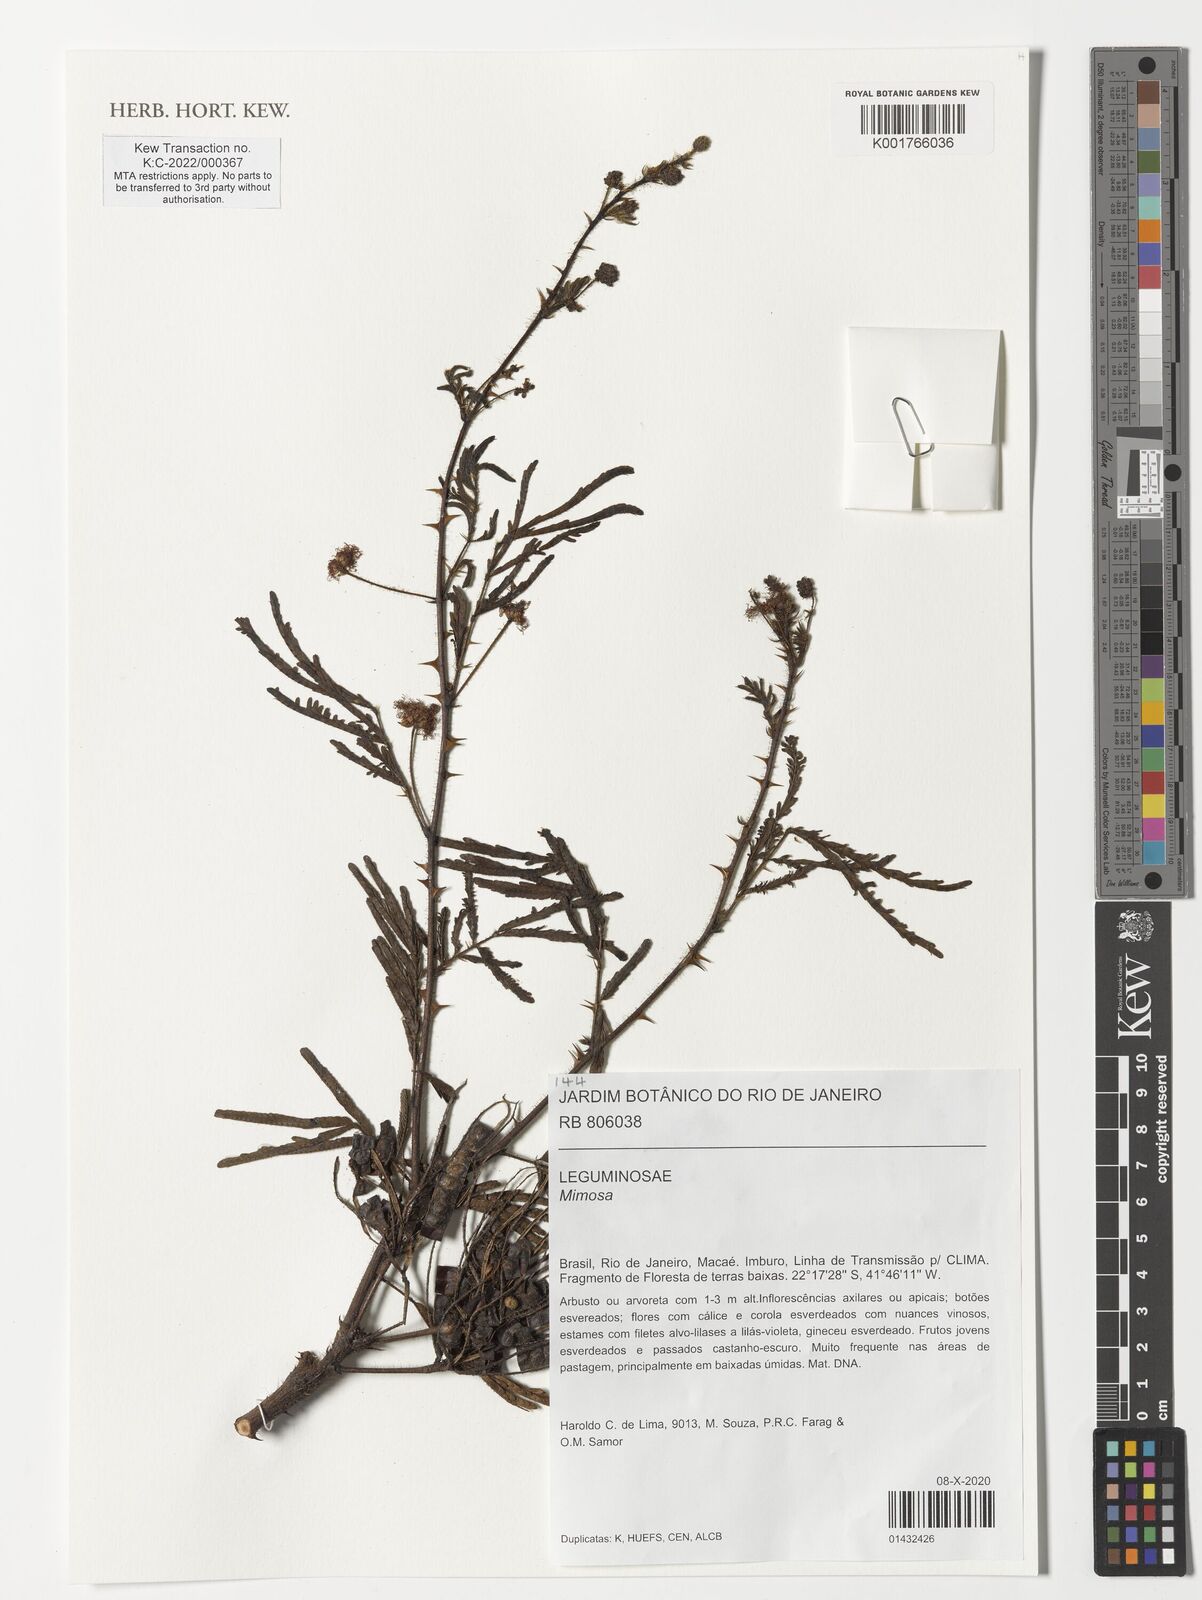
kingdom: Plantae
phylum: Tracheophyta
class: Magnoliopsida
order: Fabales
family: Fabaceae
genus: Mimosa
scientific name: Mimosa
